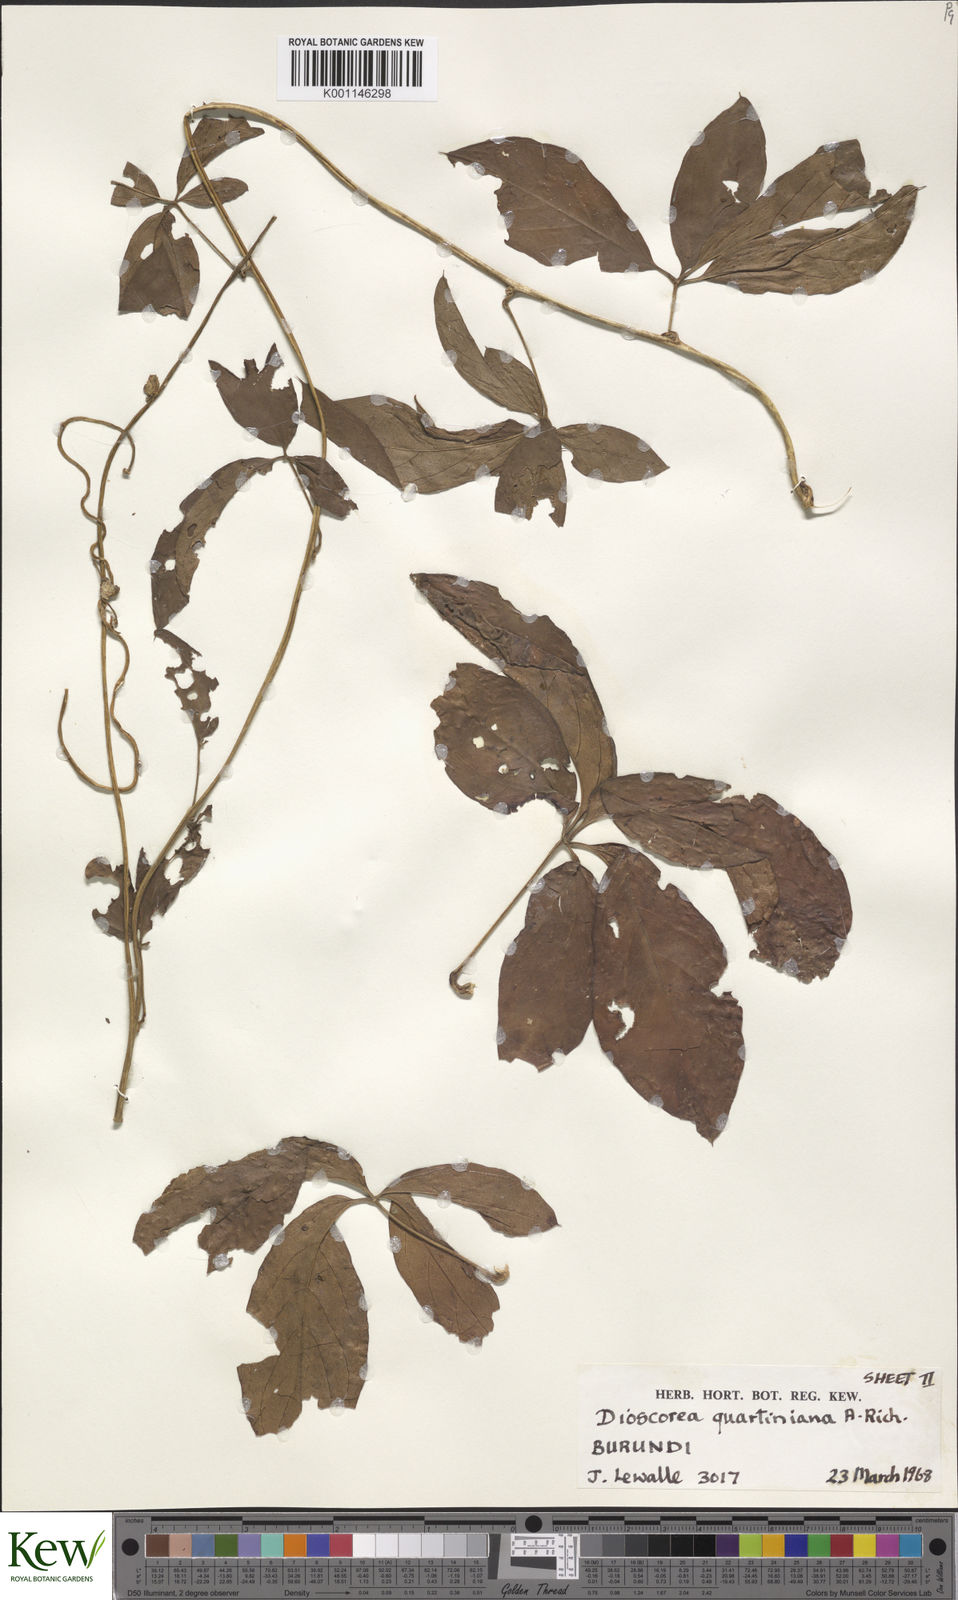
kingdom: Plantae
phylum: Tracheophyta
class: Liliopsida
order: Dioscoreales
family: Dioscoreaceae
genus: Dioscorea
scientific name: Dioscorea quartiniana
